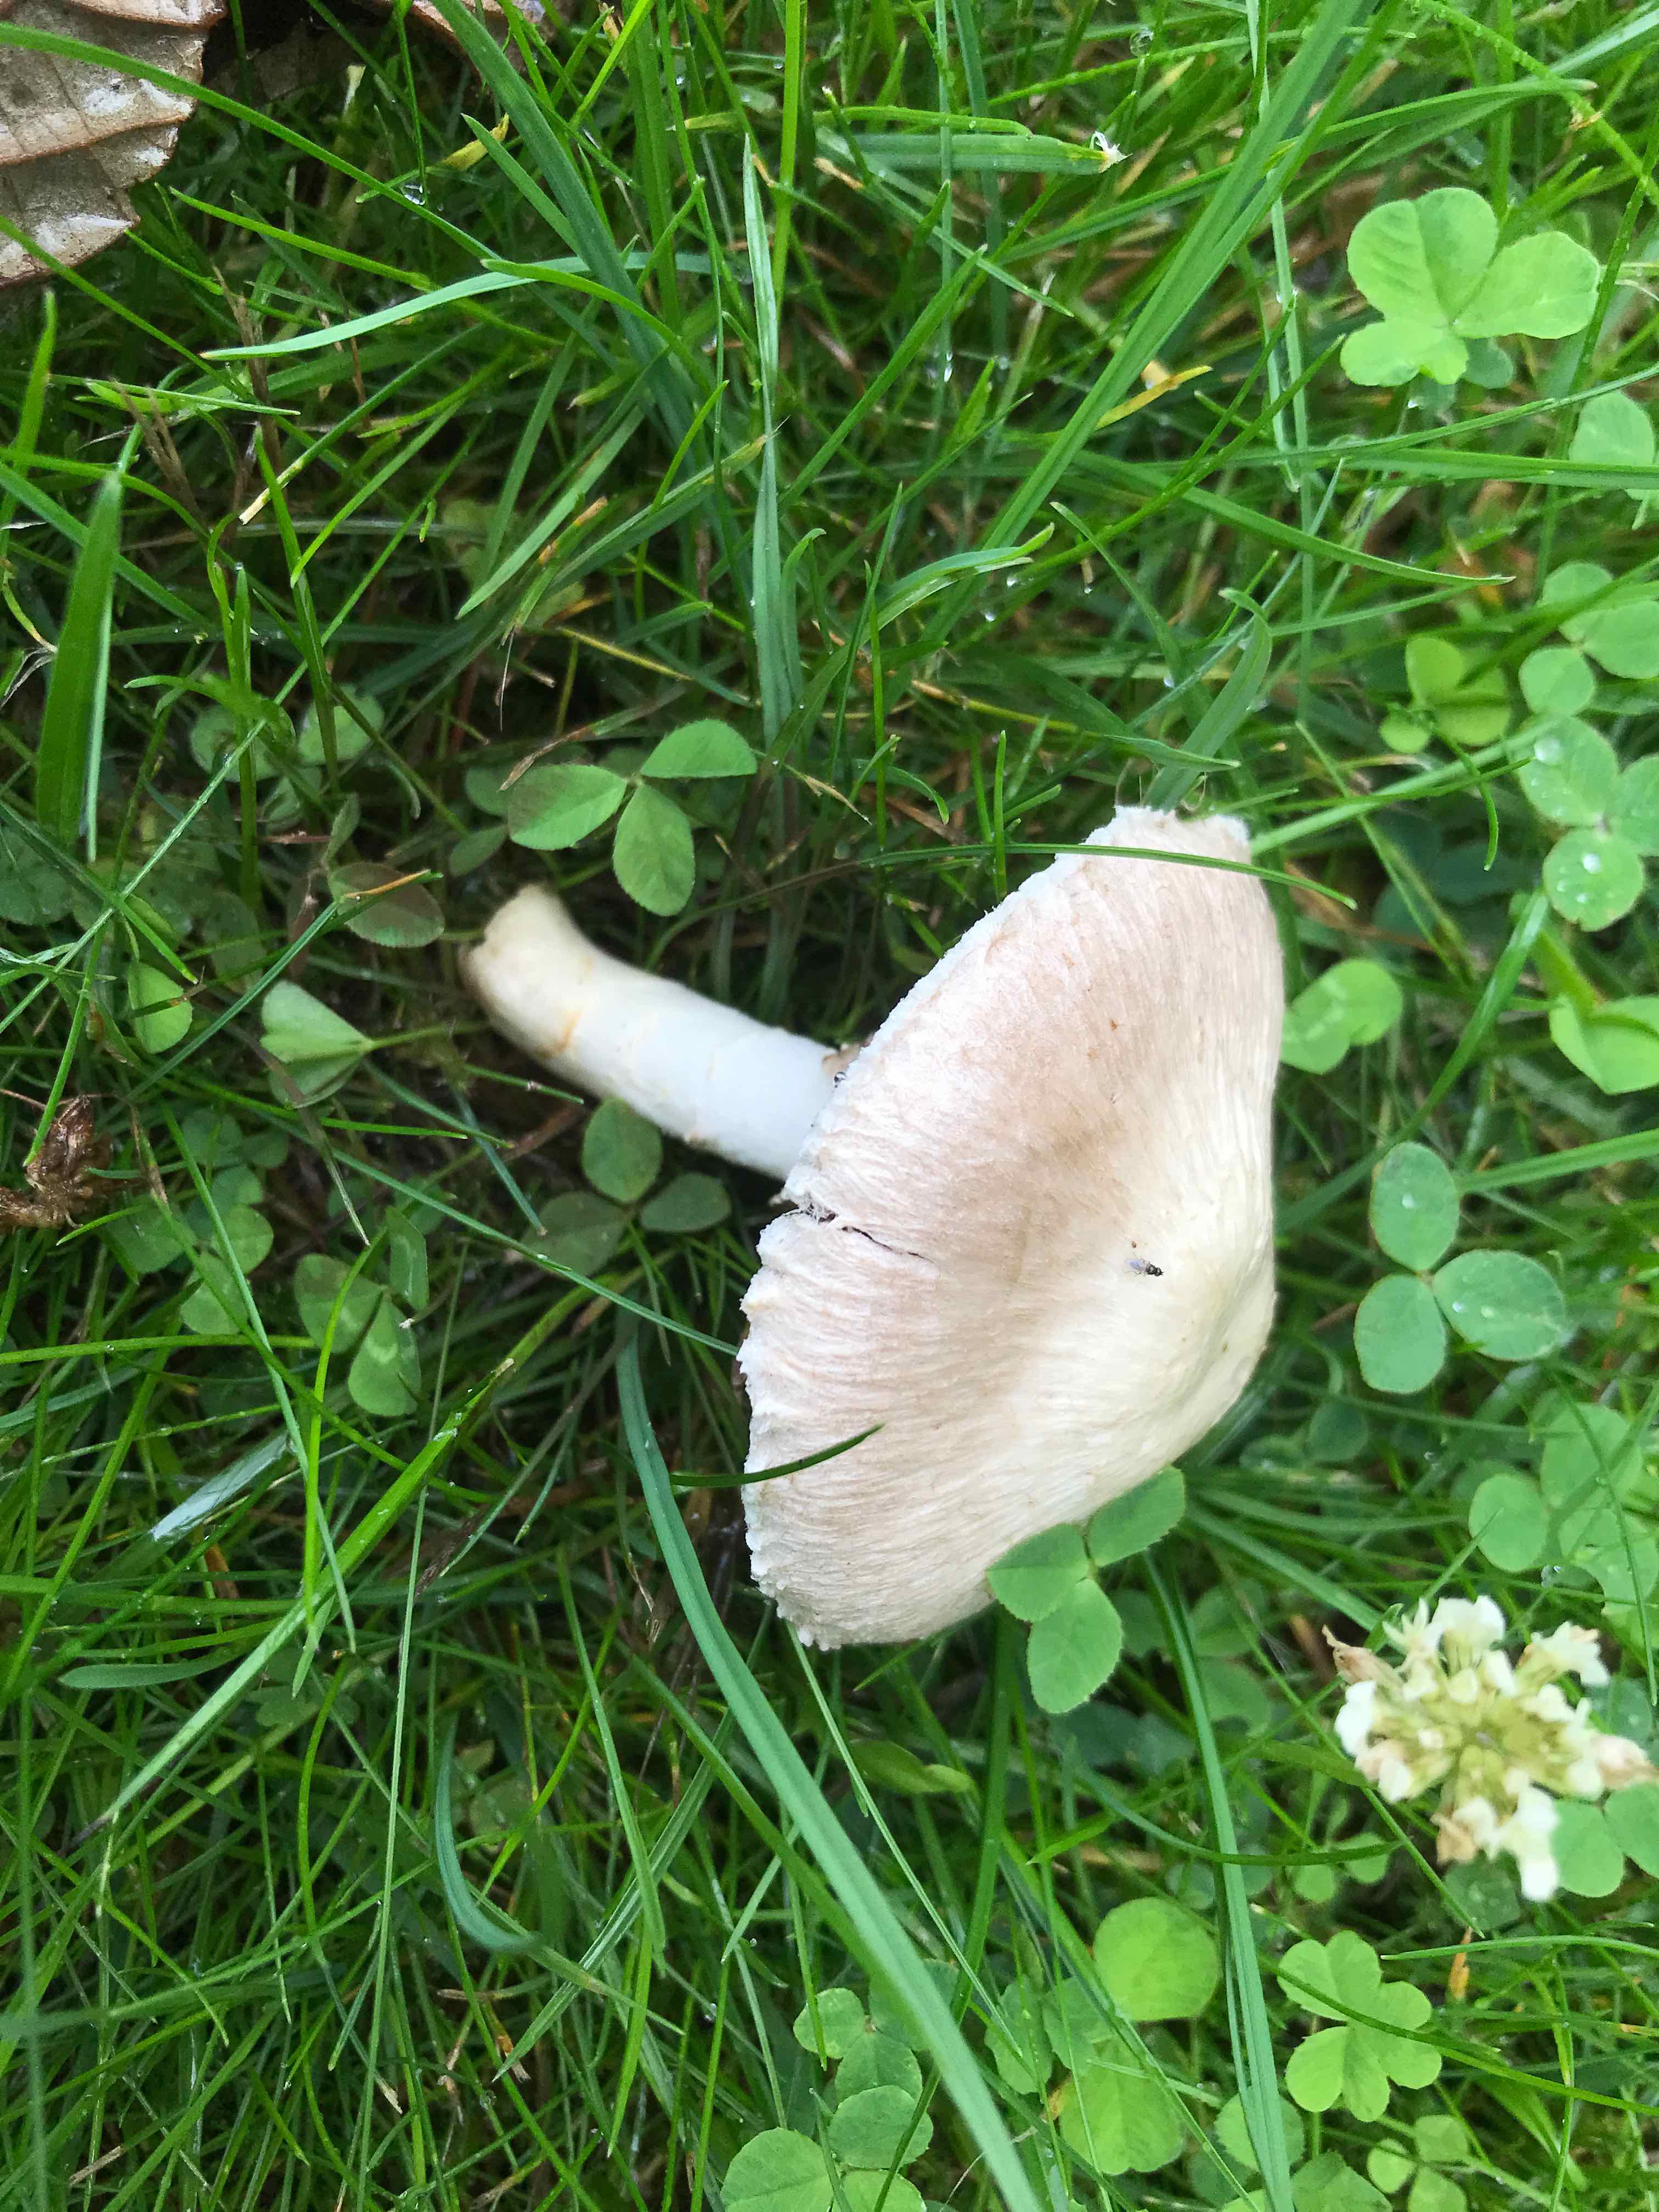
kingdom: Fungi
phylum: Basidiomycota
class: Agaricomycetes
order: Agaricales
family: Agaricaceae
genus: Agaricus
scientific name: Agaricus campestris
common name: mark-champignon
